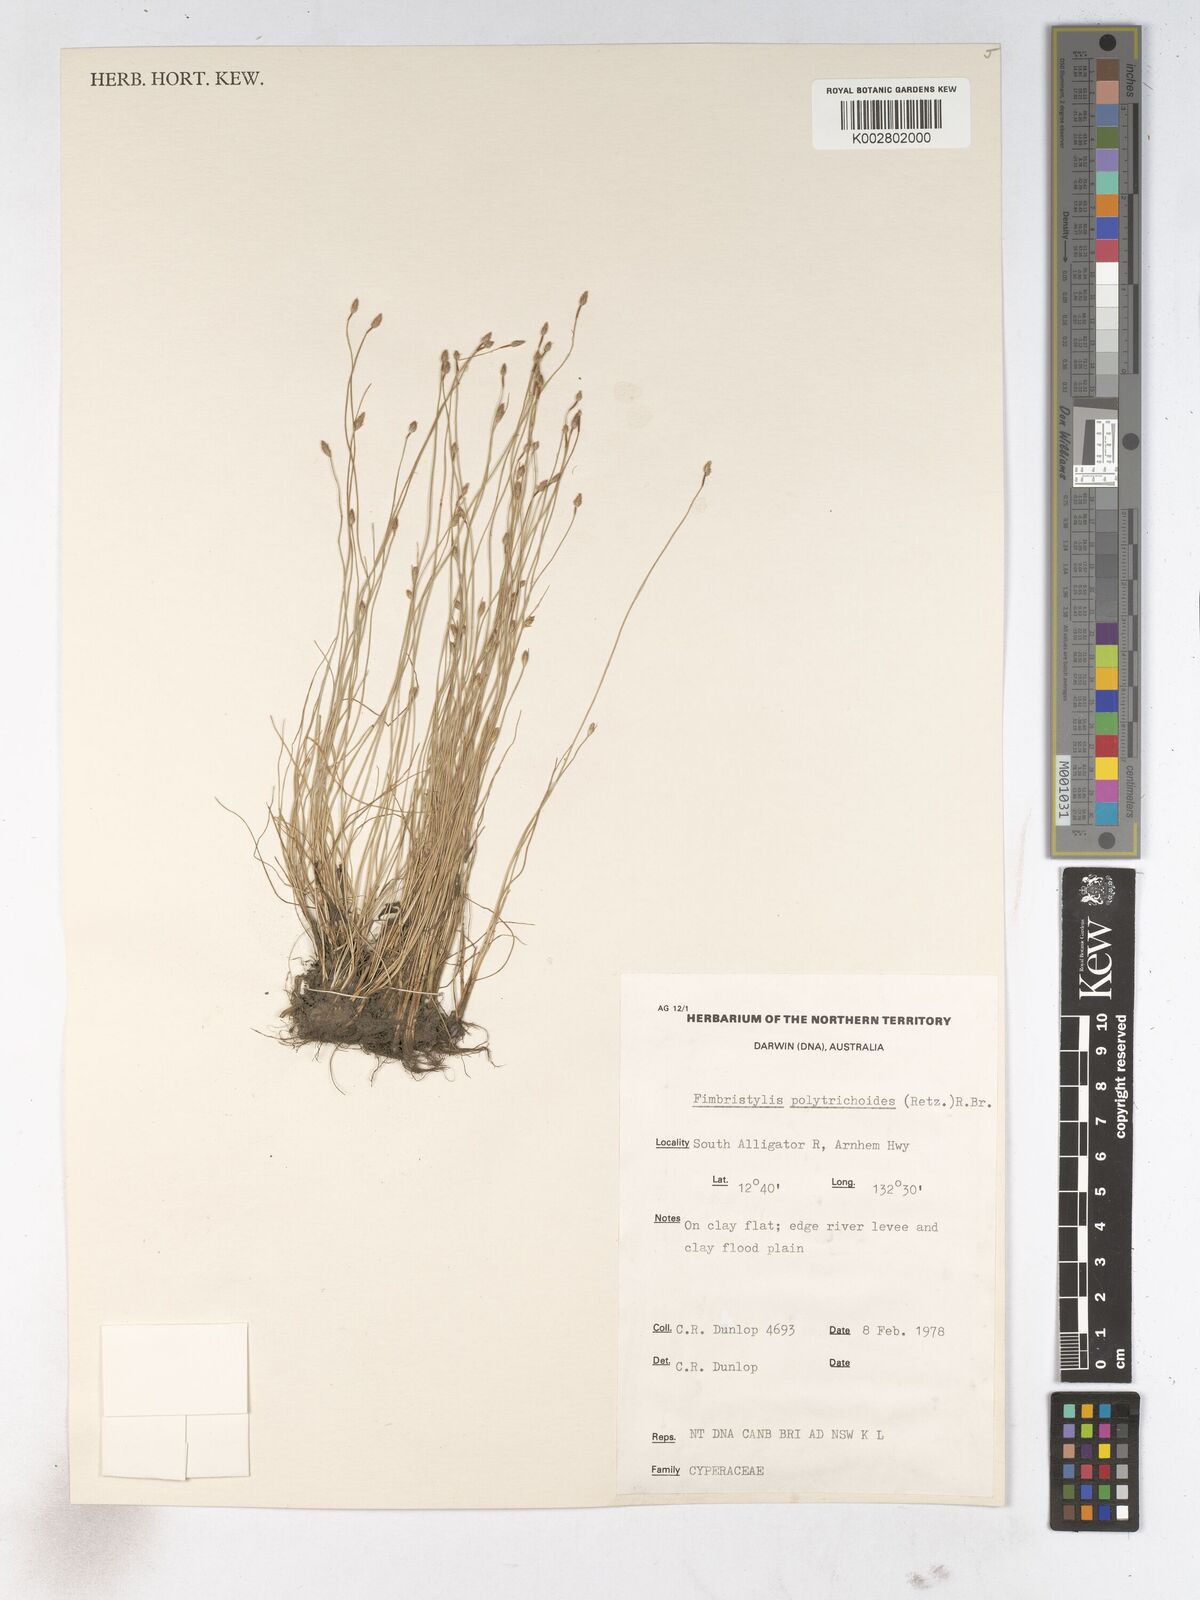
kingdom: Plantae
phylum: Tracheophyta
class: Liliopsida
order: Poales
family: Cyperaceae
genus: Fimbristylis
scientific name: Fimbristylis polytrichoides
